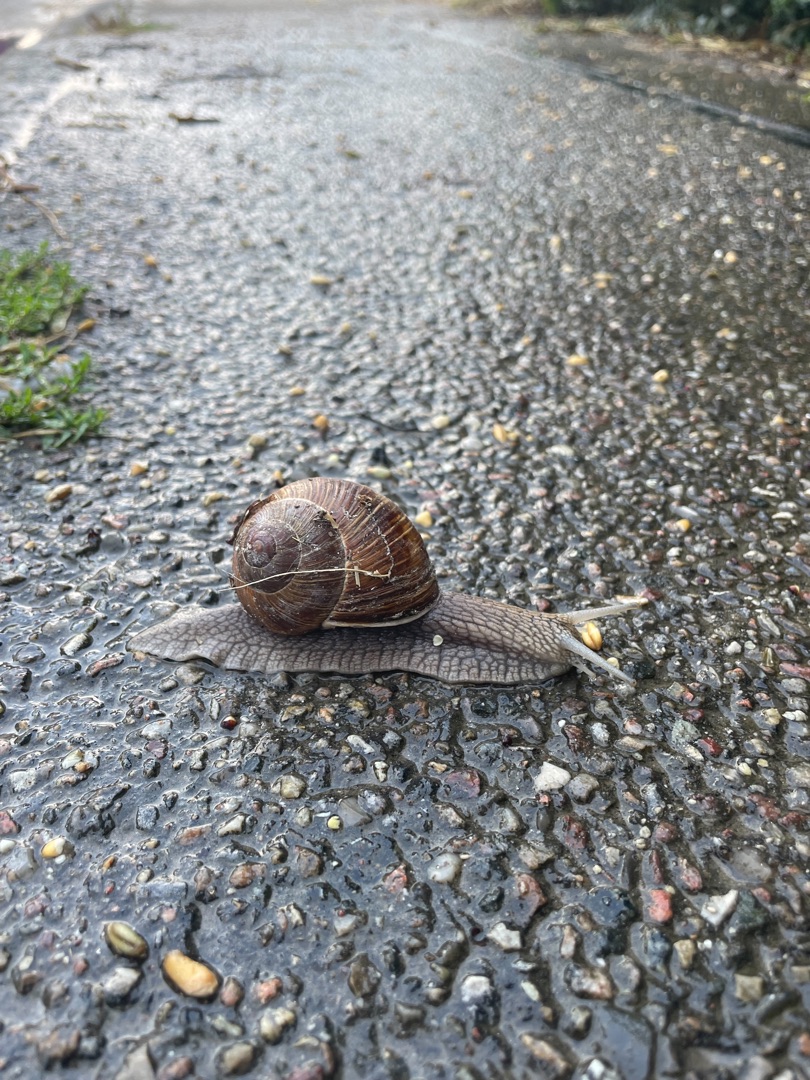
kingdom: Animalia
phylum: Mollusca
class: Gastropoda
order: Stylommatophora
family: Helicidae
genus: Helix
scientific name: Helix pomatia
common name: Vinbjergsnegl
